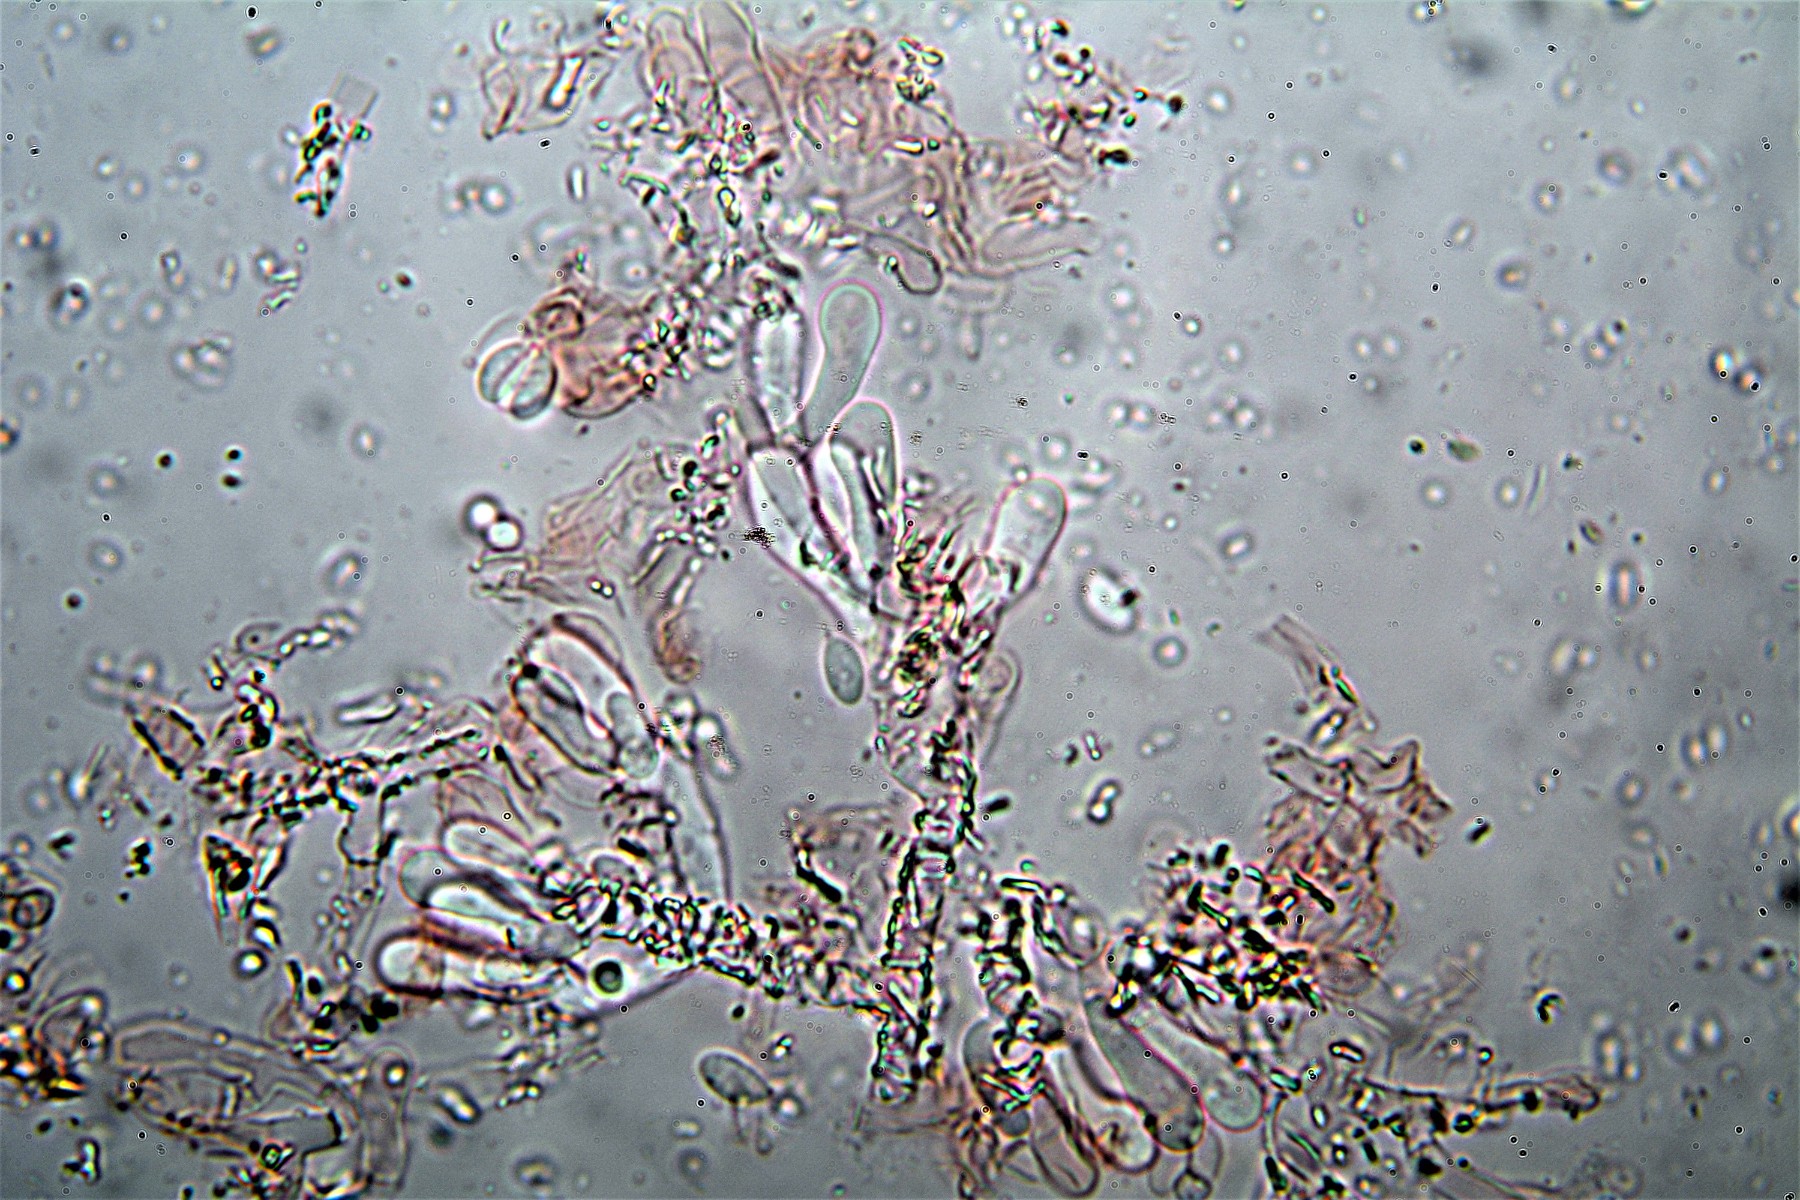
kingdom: Fungi
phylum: Basidiomycota
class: Agaricomycetes
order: Atheliales
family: Atheliaceae
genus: Athelia
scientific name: Athelia epiphylla
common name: almindelig barkhinde
